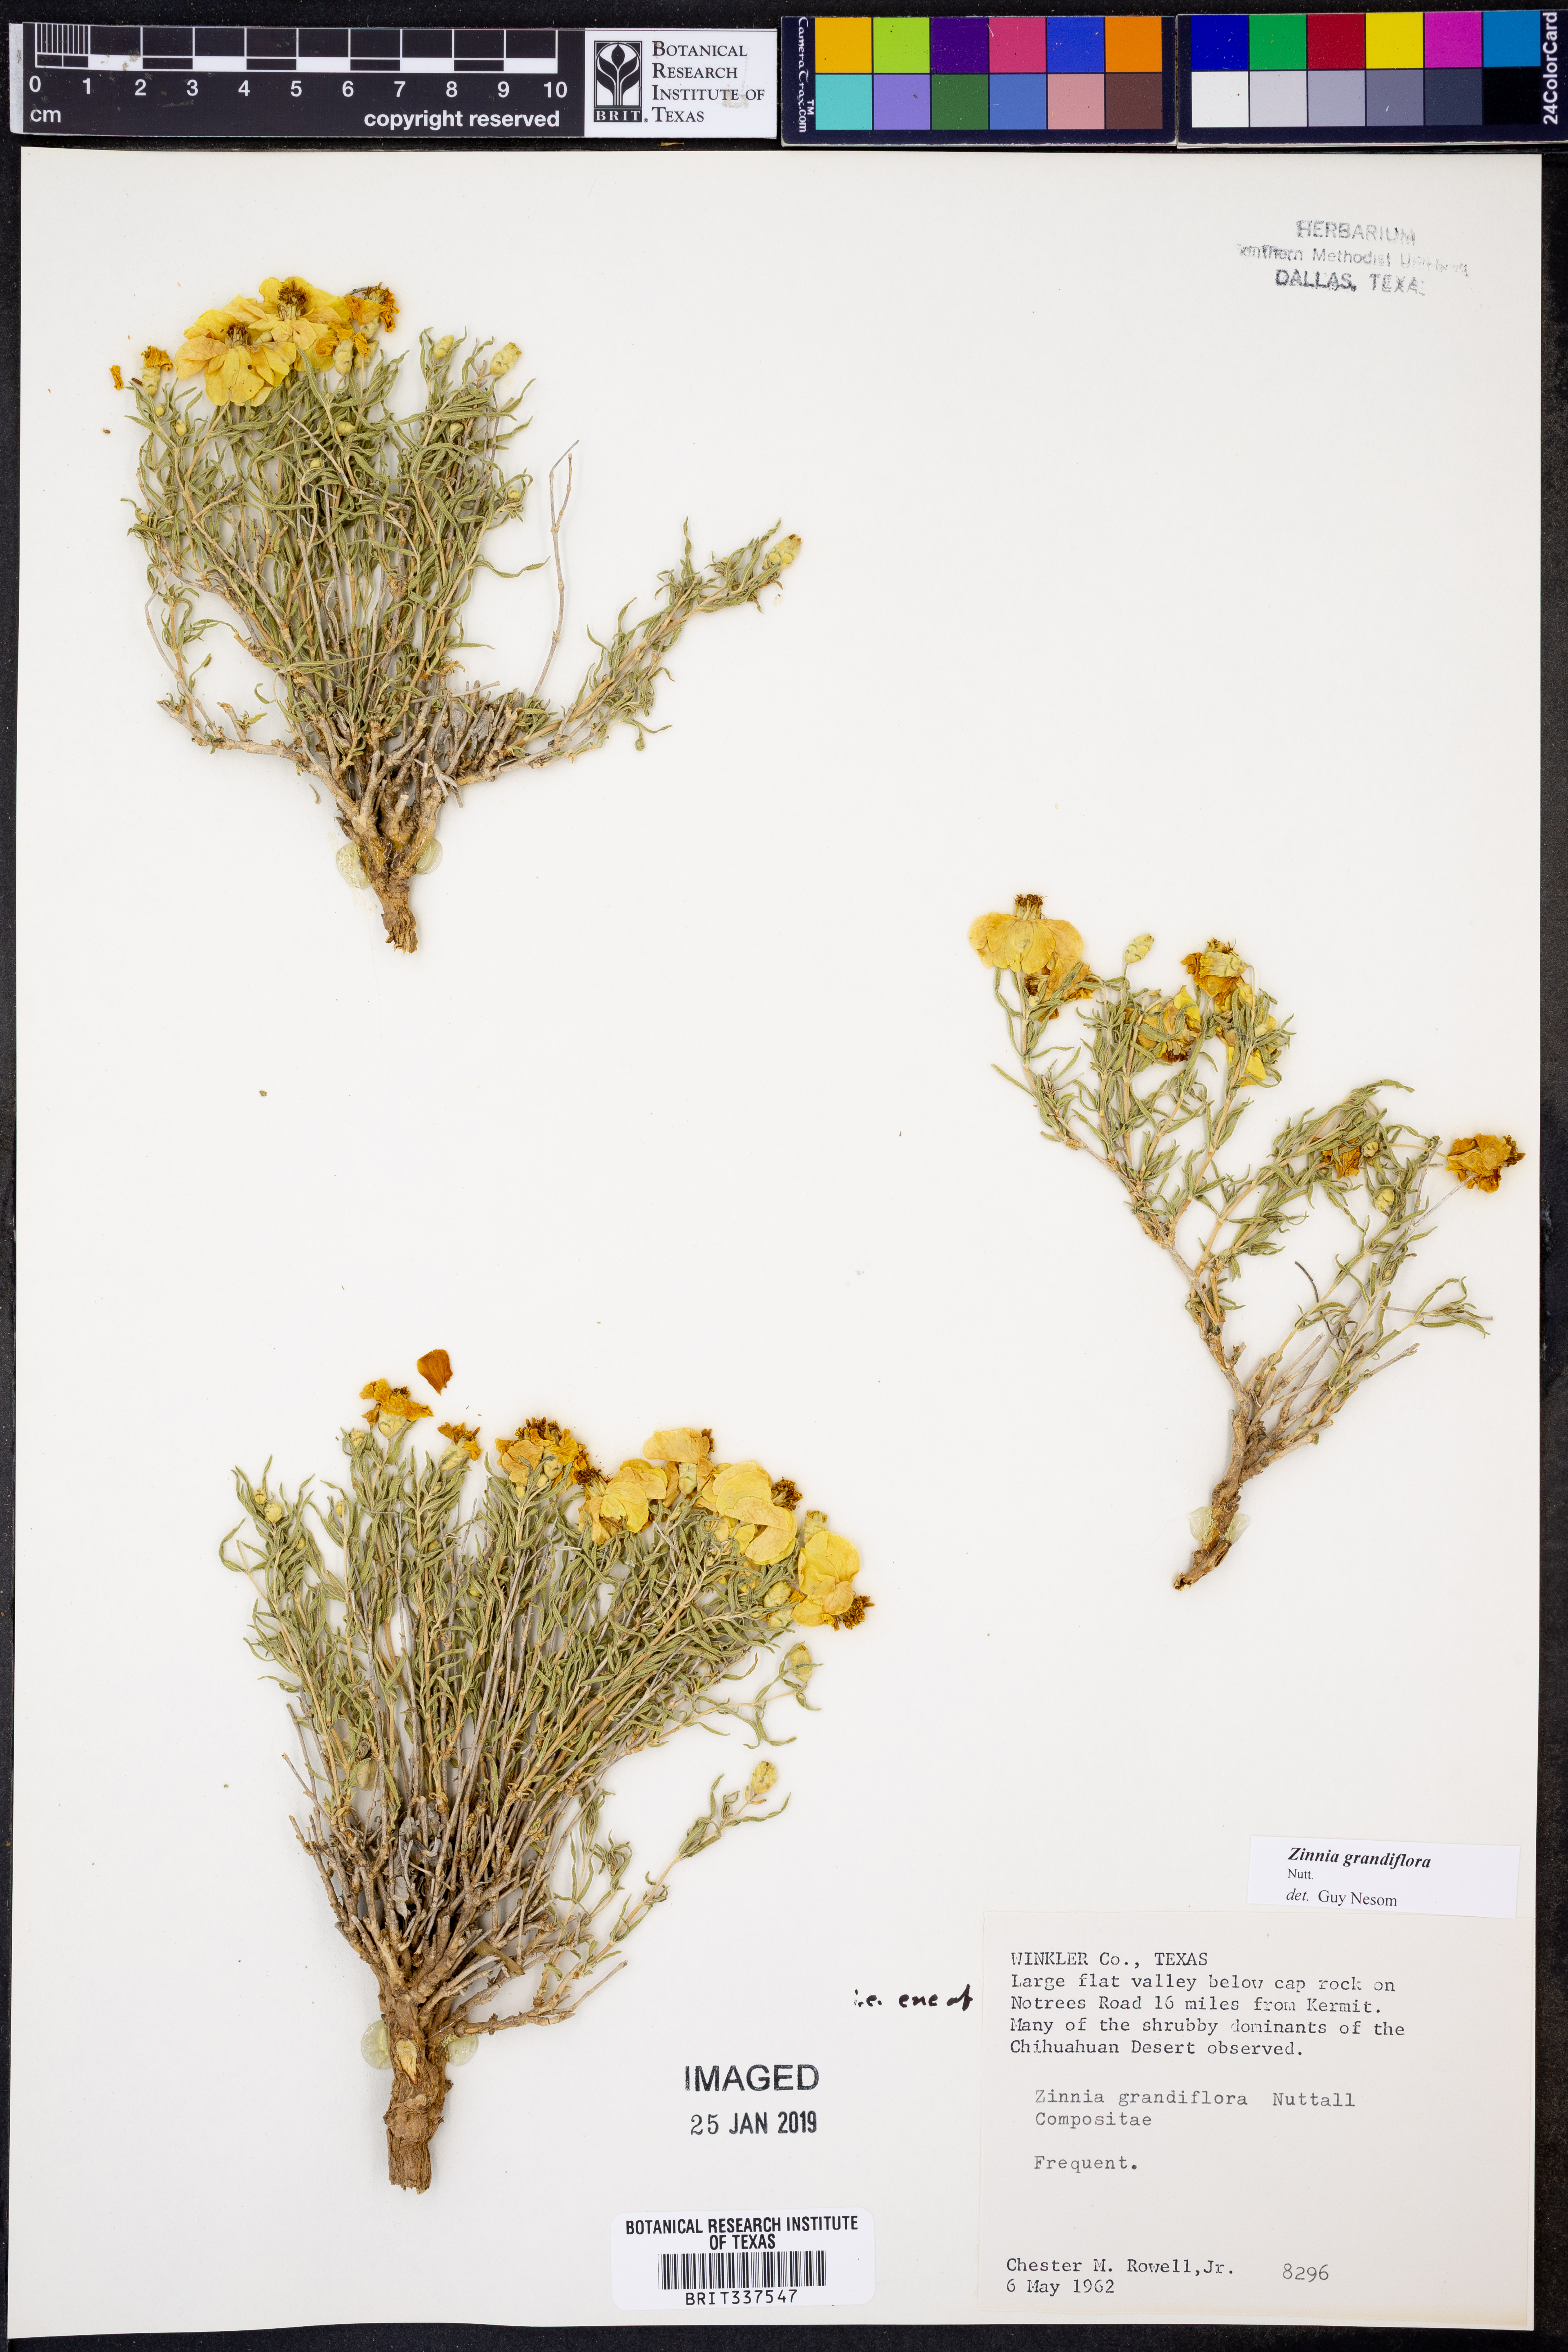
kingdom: Plantae
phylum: Tracheophyta
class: Magnoliopsida
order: Asterales
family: Asteraceae
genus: Zinnia
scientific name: Zinnia grandiflora
